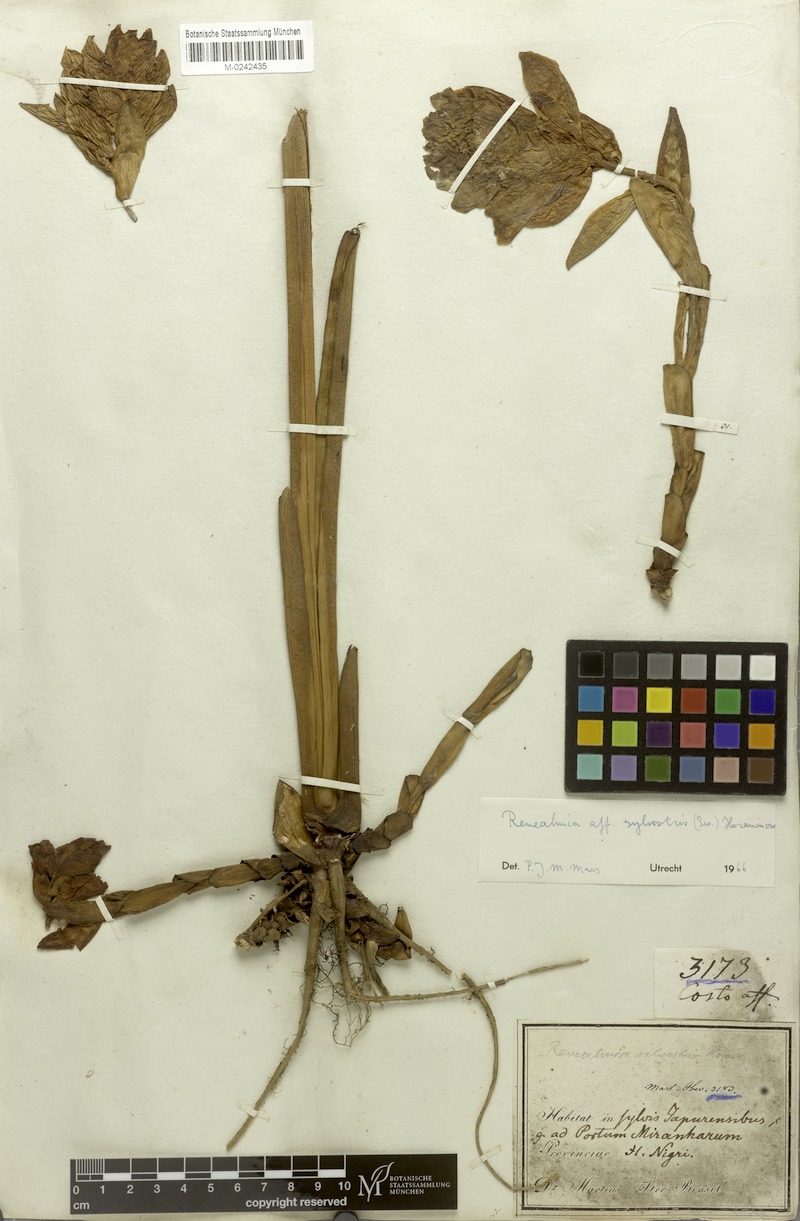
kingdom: Plantae
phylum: Tracheophyta
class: Liliopsida
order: Zingiberales
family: Zingiberaceae
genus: Renealmia
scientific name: Renealmia striata
